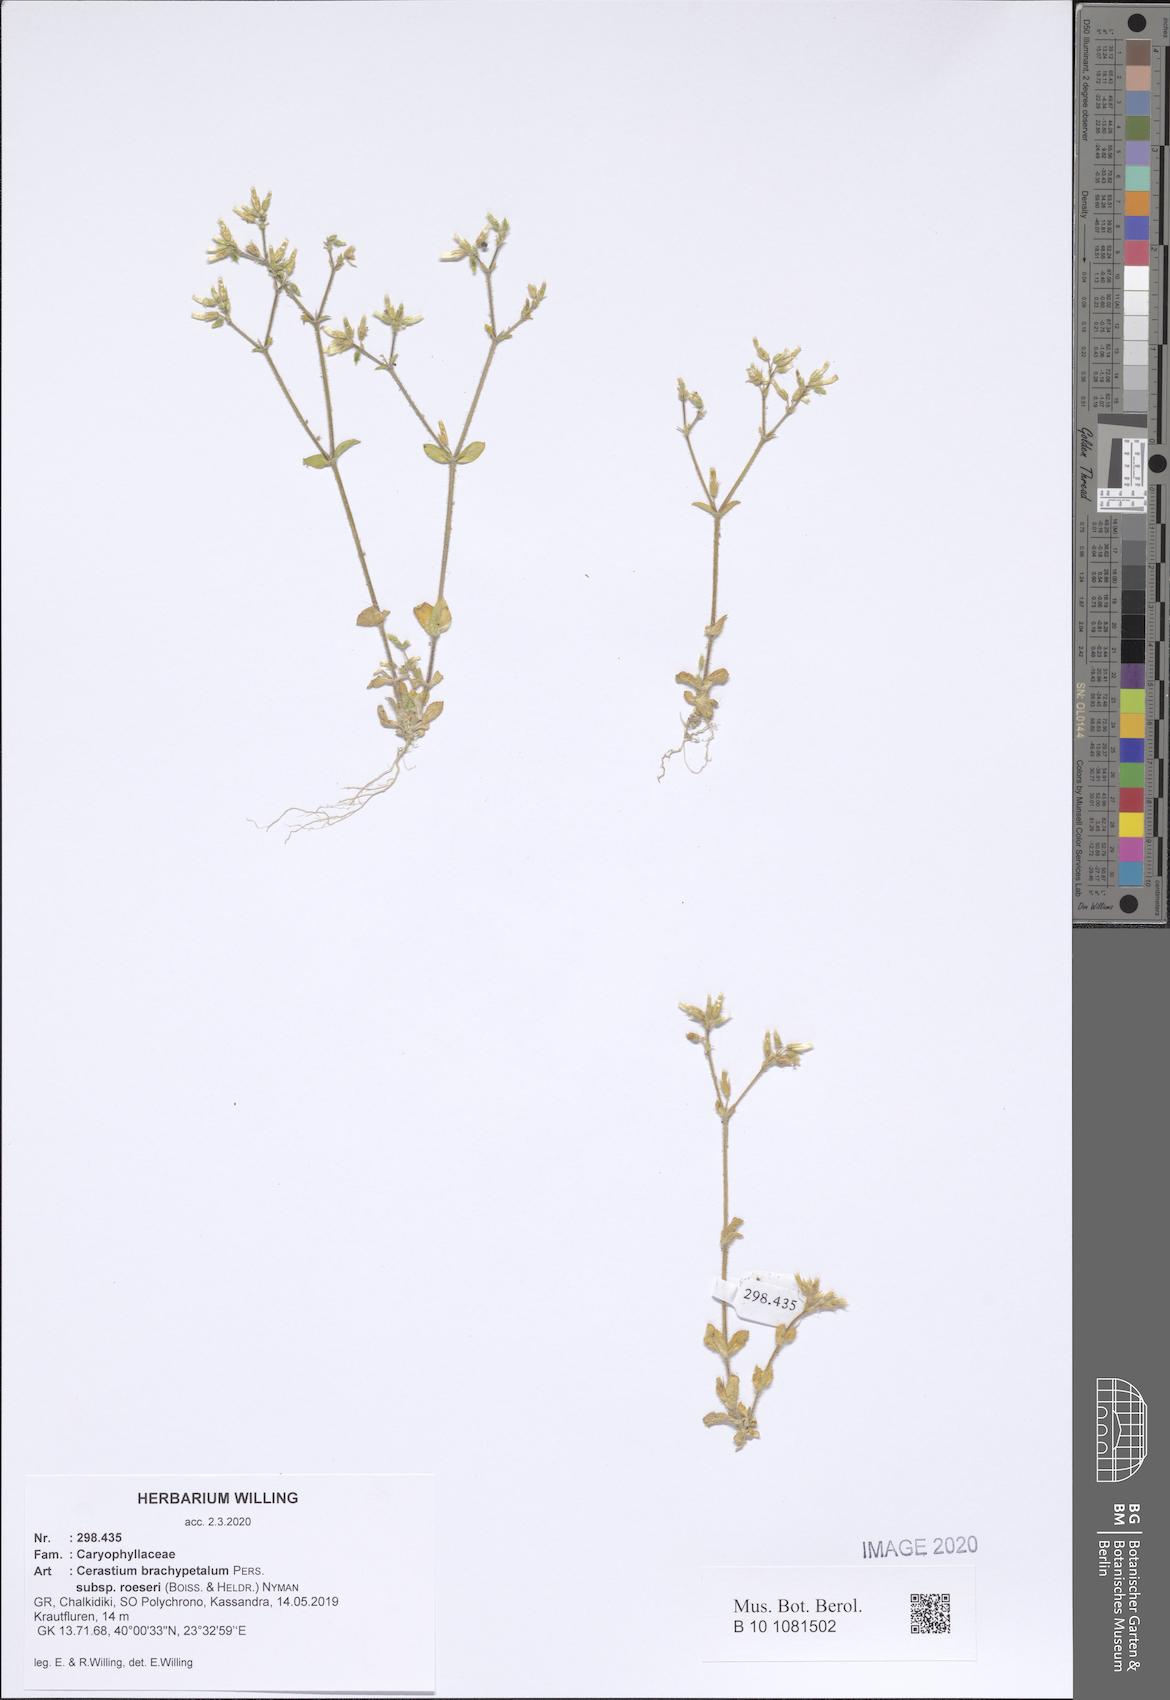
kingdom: Plantae
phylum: Tracheophyta
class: Magnoliopsida
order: Caryophyllales
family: Caryophyllaceae
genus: Cerastium
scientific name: Cerastium brachypetalum
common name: Grey mouse-ear
